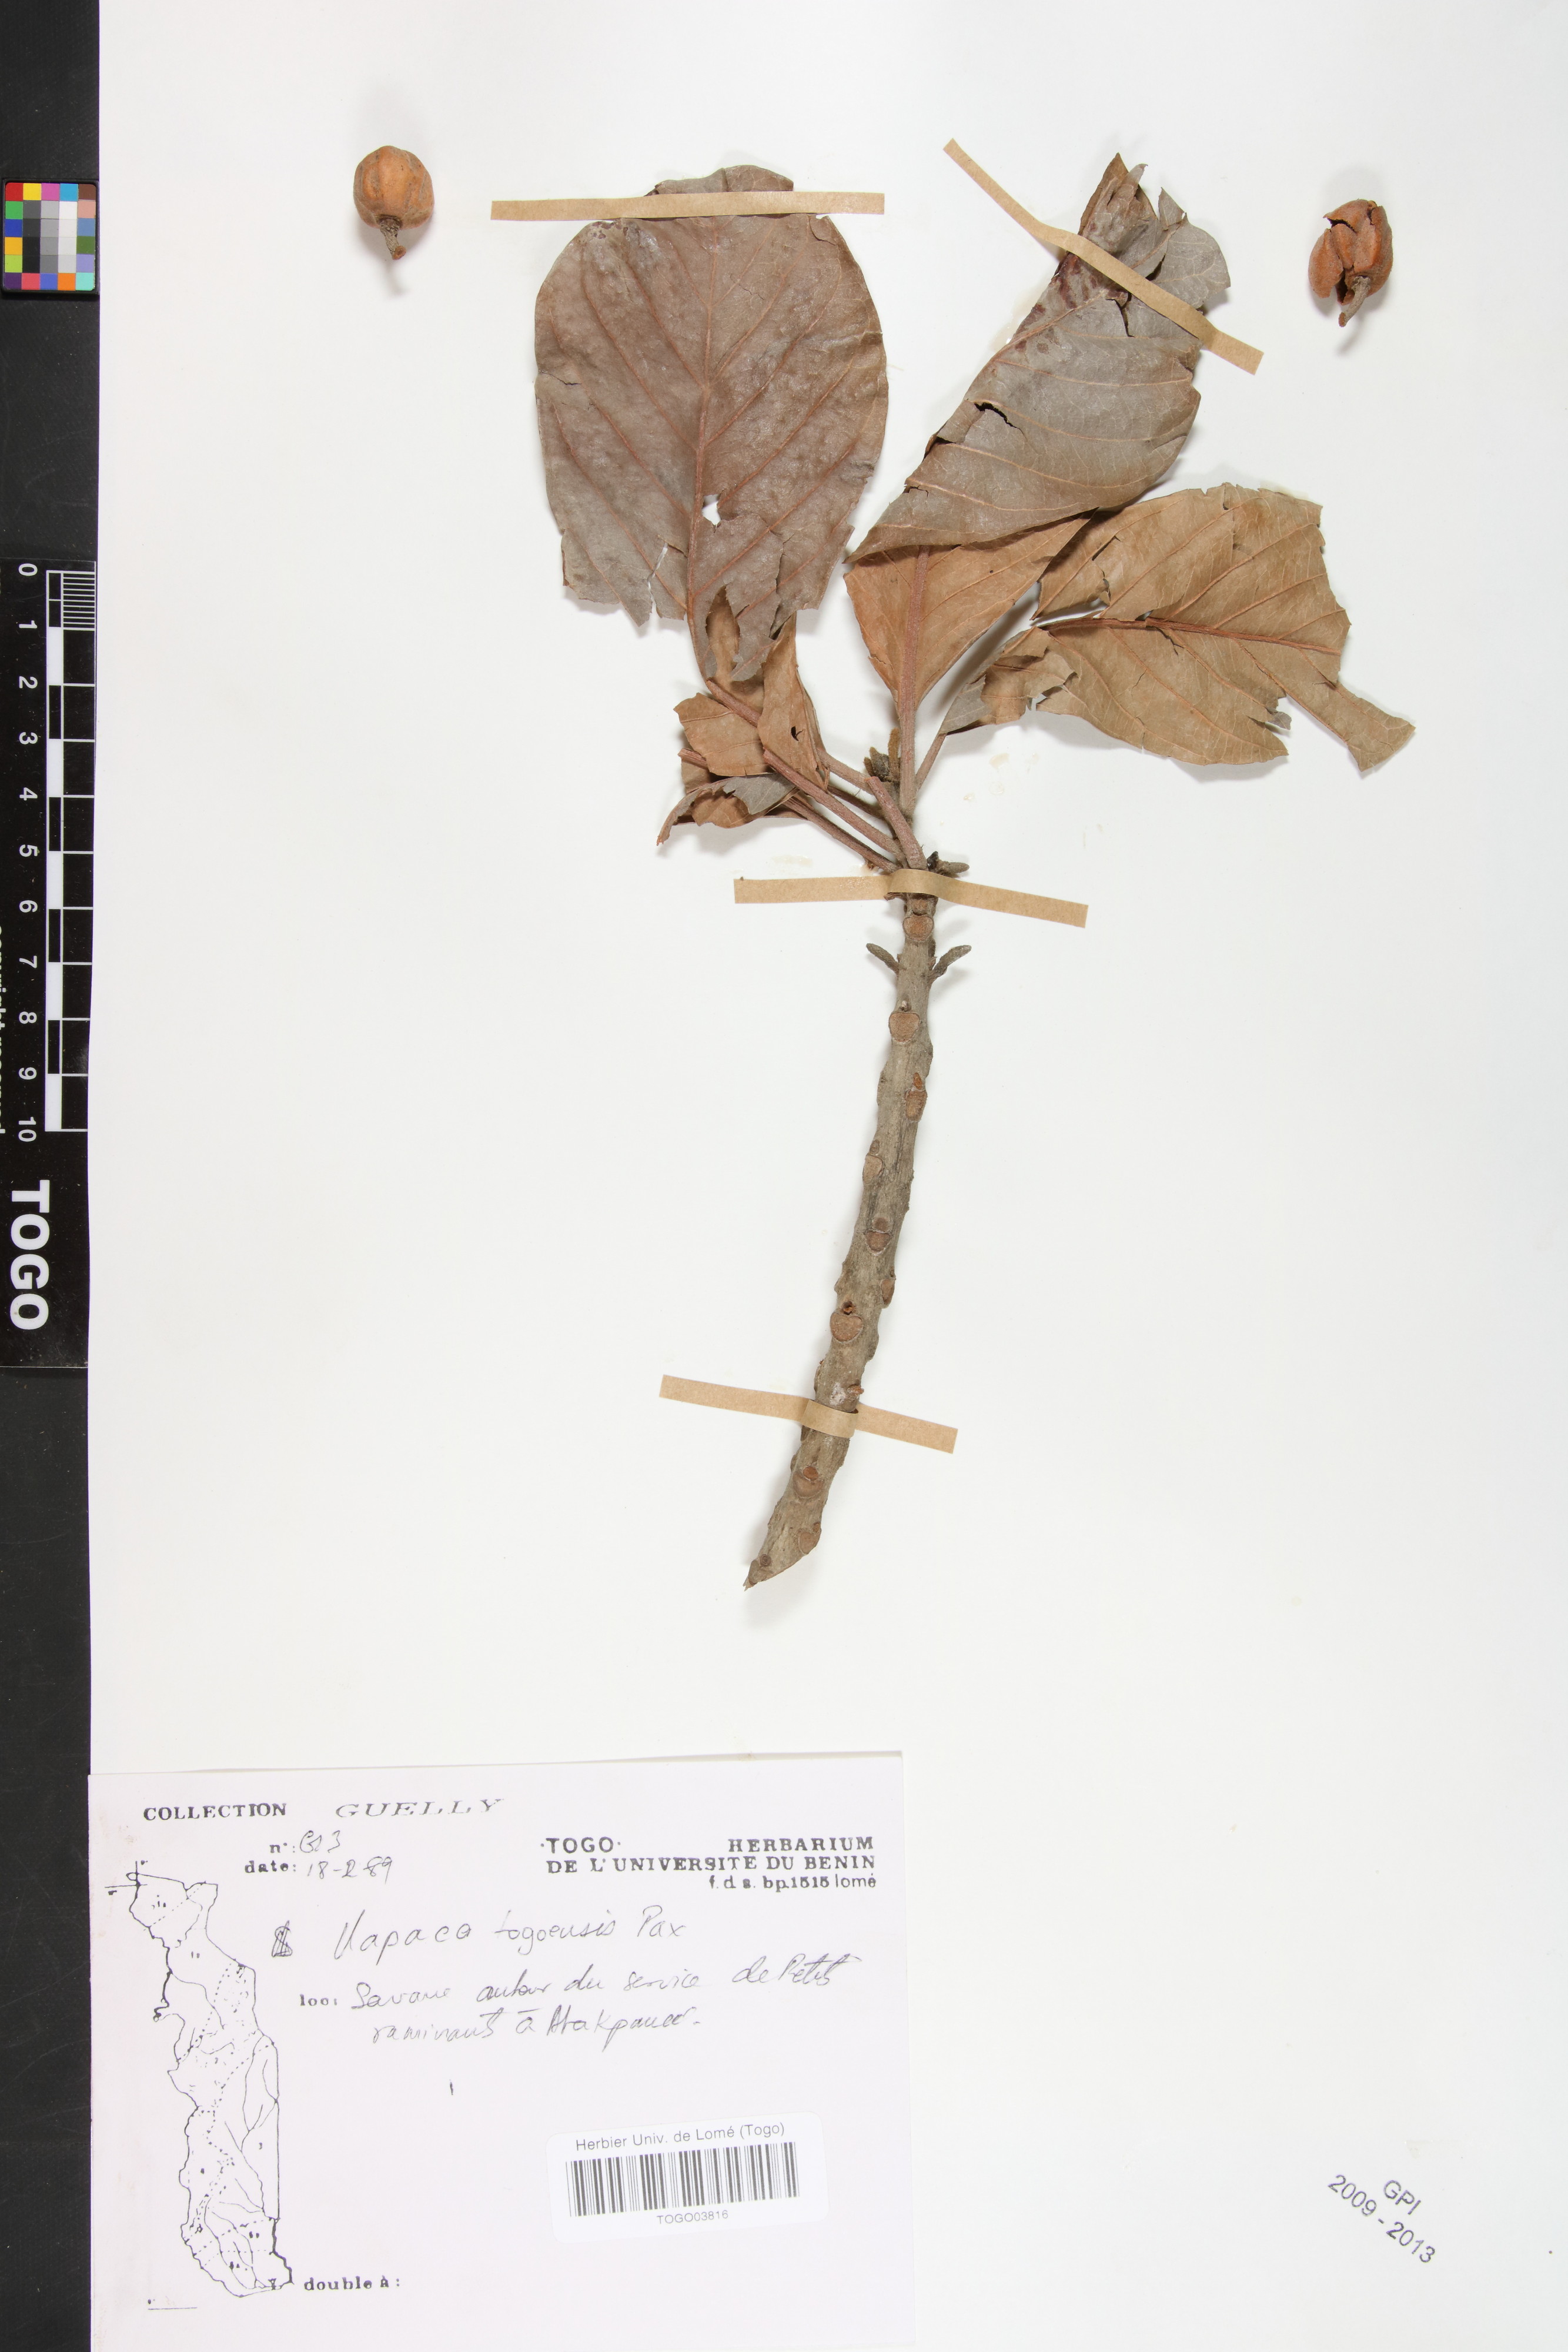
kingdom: Plantae
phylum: Tracheophyta
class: Magnoliopsida
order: Malpighiales
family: Phyllanthaceae
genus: Uapaca
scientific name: Uapaca togoensis
